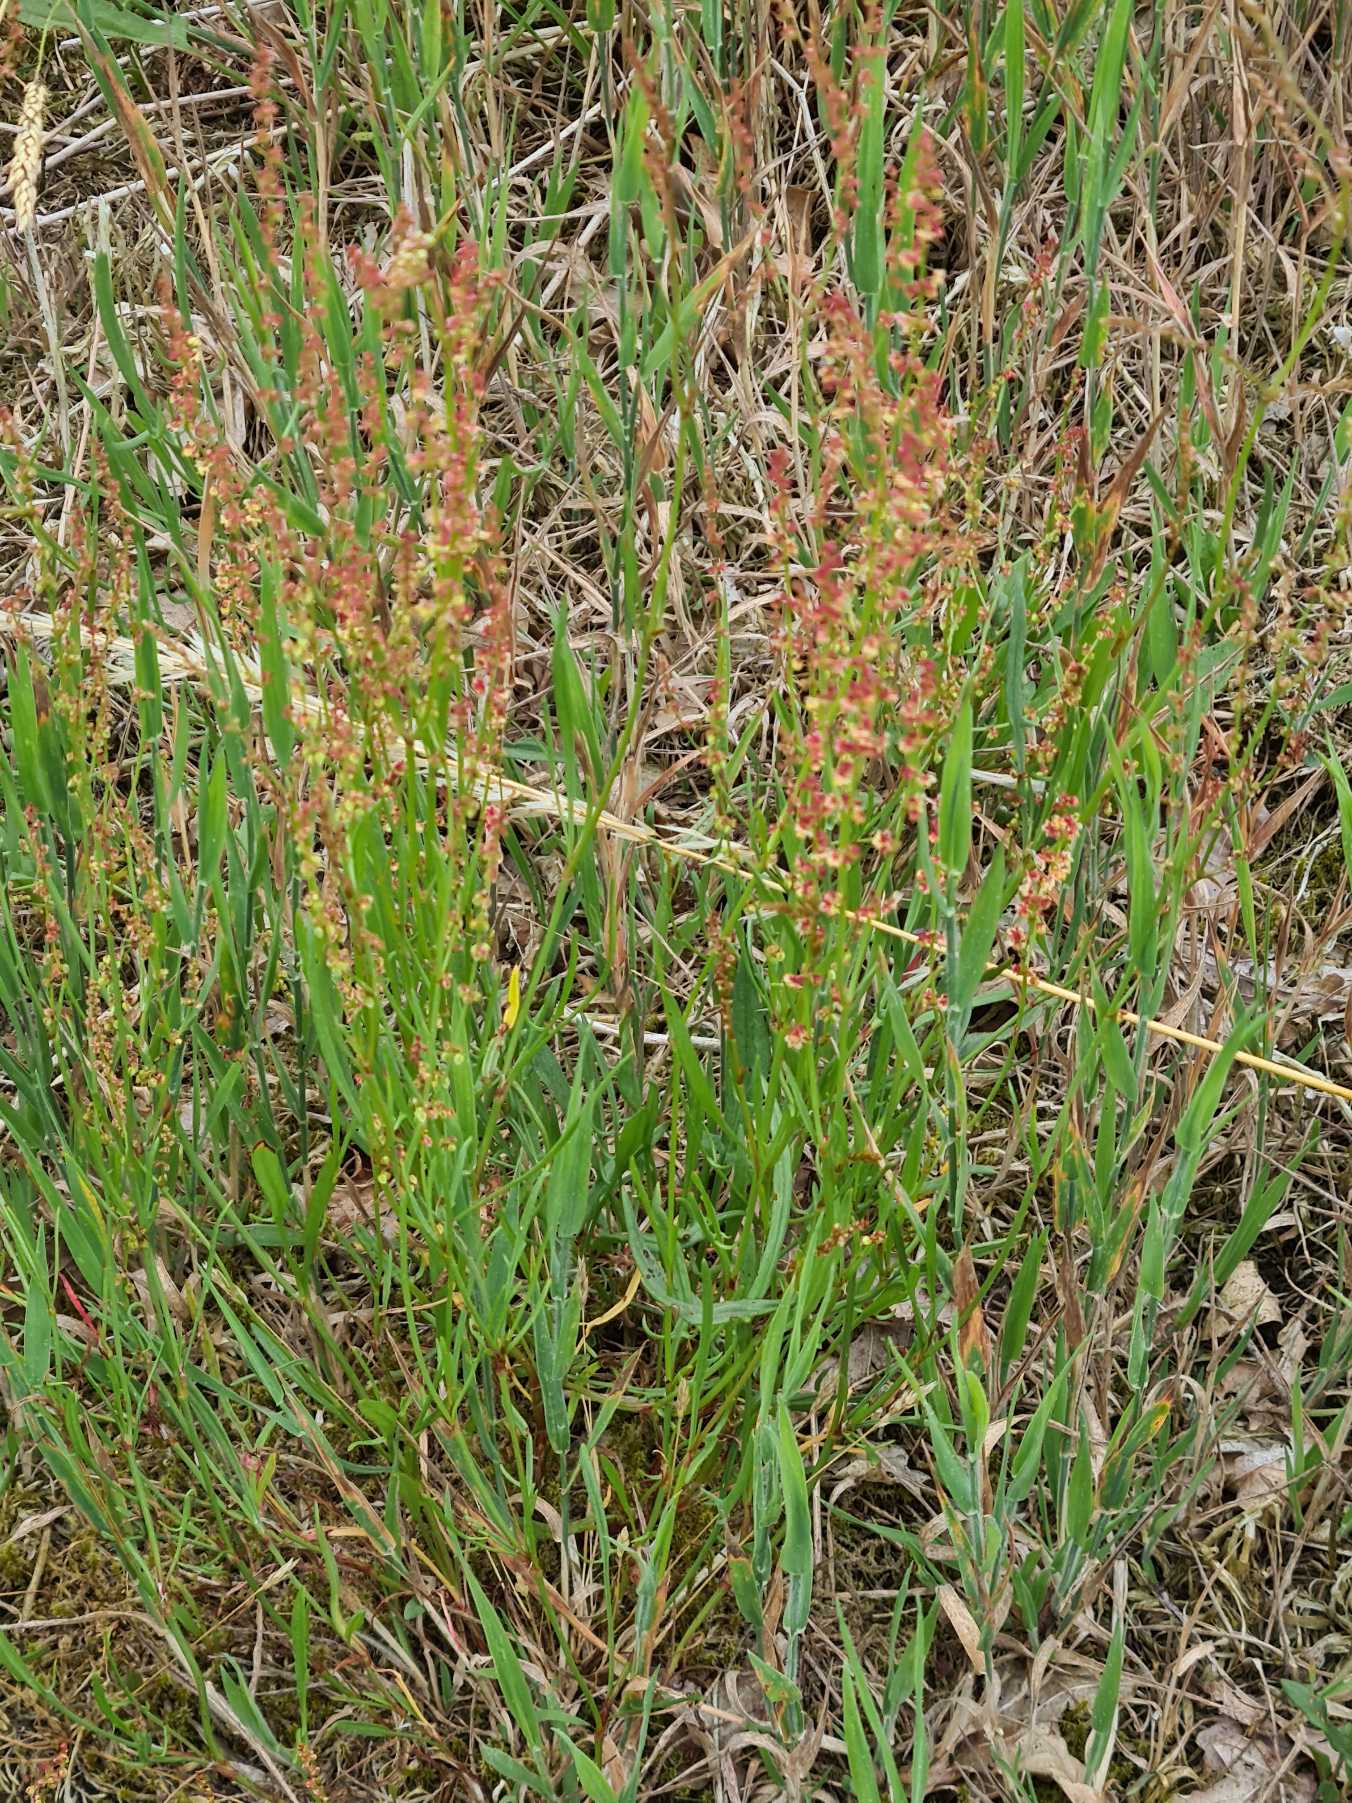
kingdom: Plantae
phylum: Tracheophyta
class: Magnoliopsida
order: Caryophyllales
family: Polygonaceae
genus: Rumex
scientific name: Rumex acetosella
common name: Rødknæ
